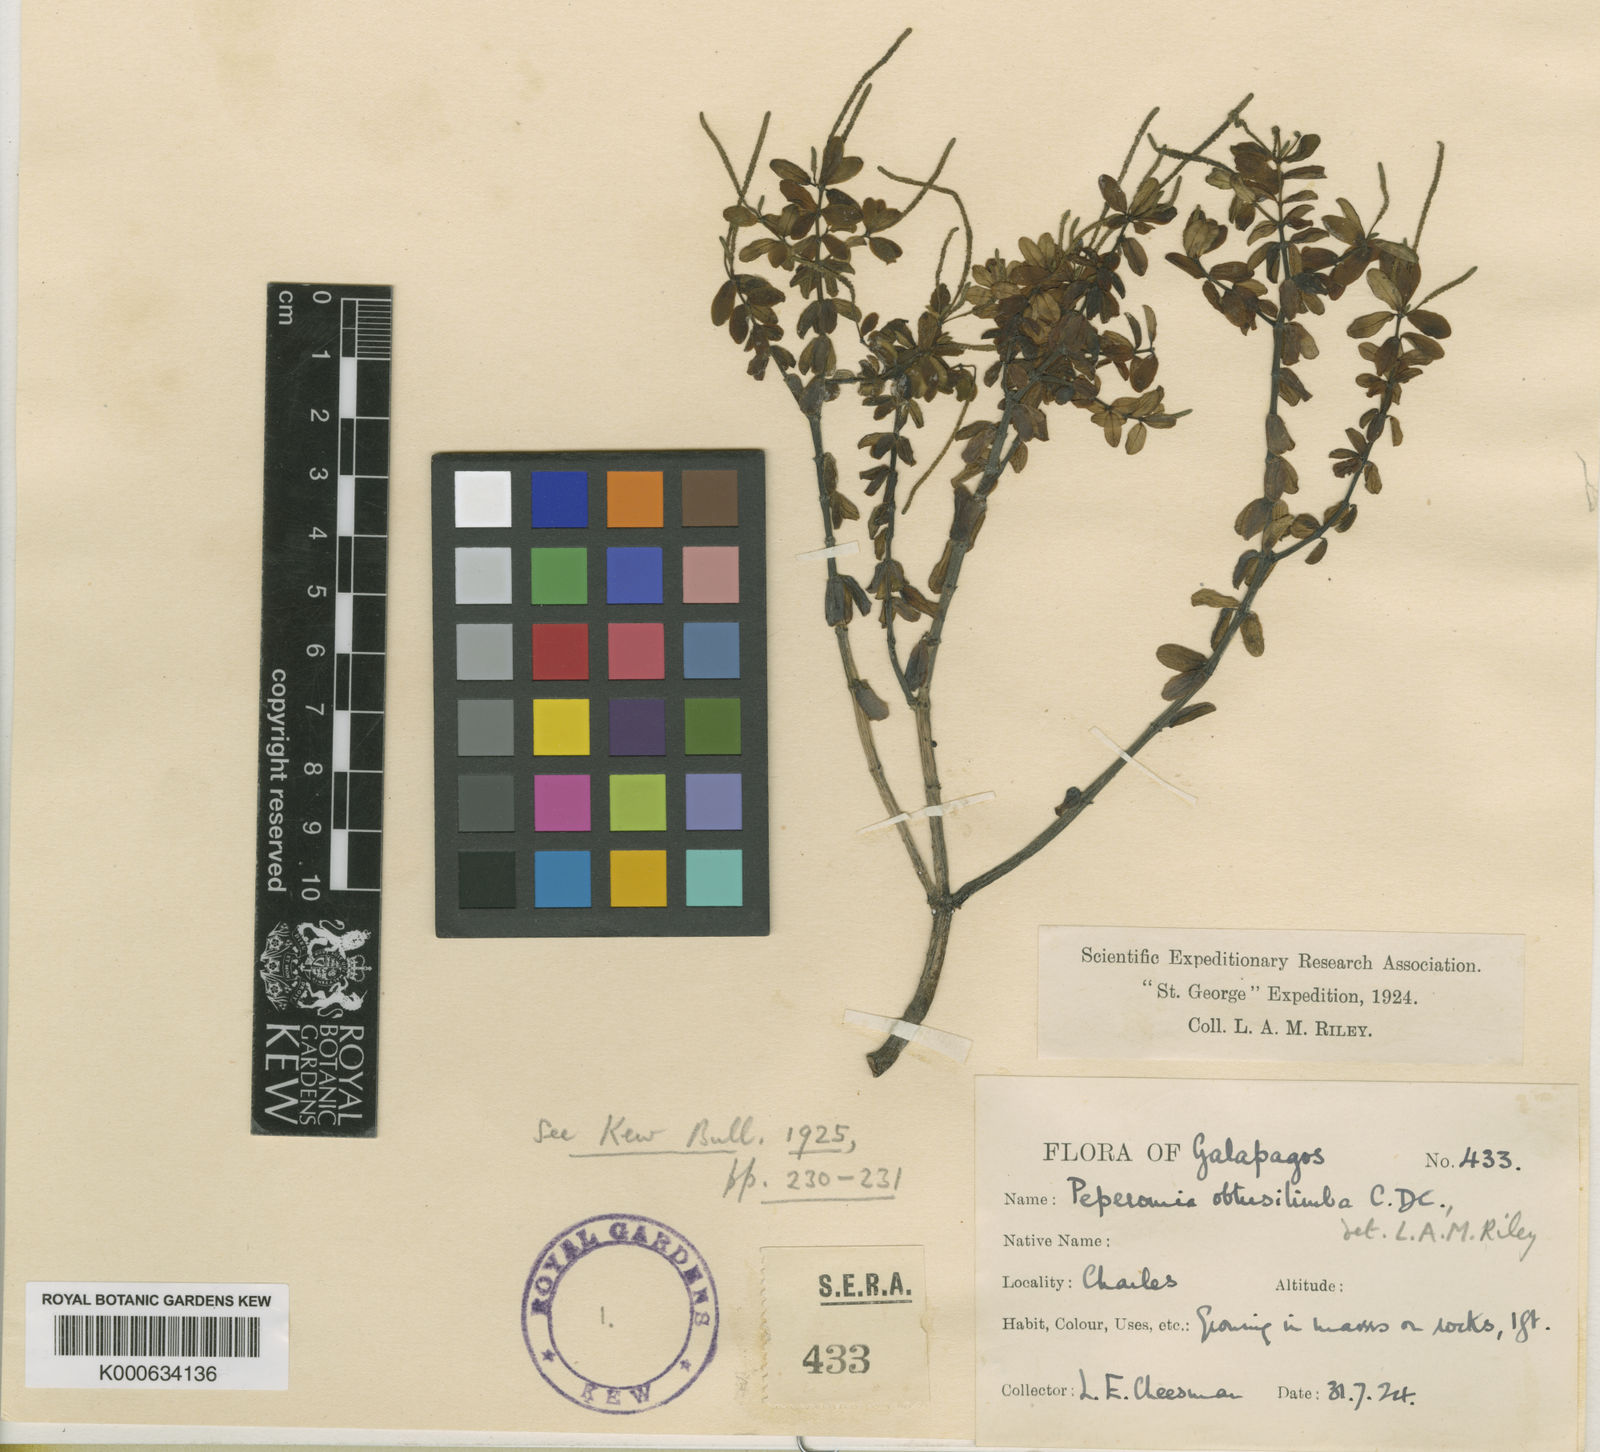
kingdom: Plantae
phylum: Tracheophyta
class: Magnoliopsida
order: Piperales
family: Piperaceae
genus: Peperomia
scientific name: Peperomia inaequalifolia
